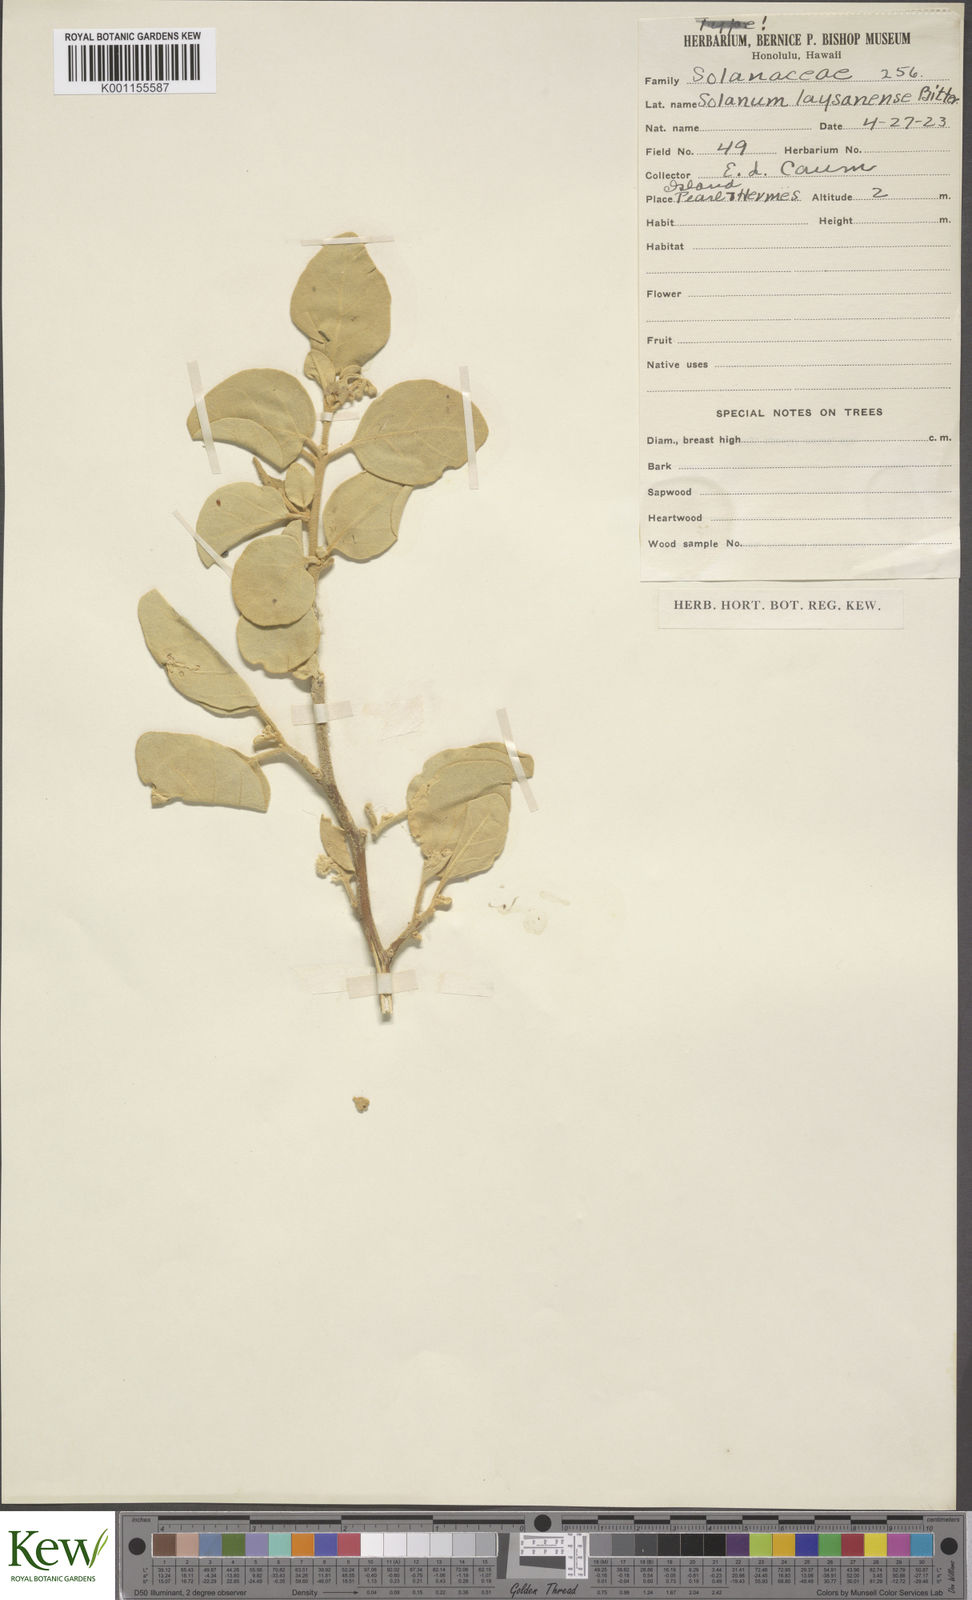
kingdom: Plantae
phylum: Tracheophyta
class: Magnoliopsida
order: Solanales
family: Solanaceae
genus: Solanum
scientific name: Solanum nelsonii
